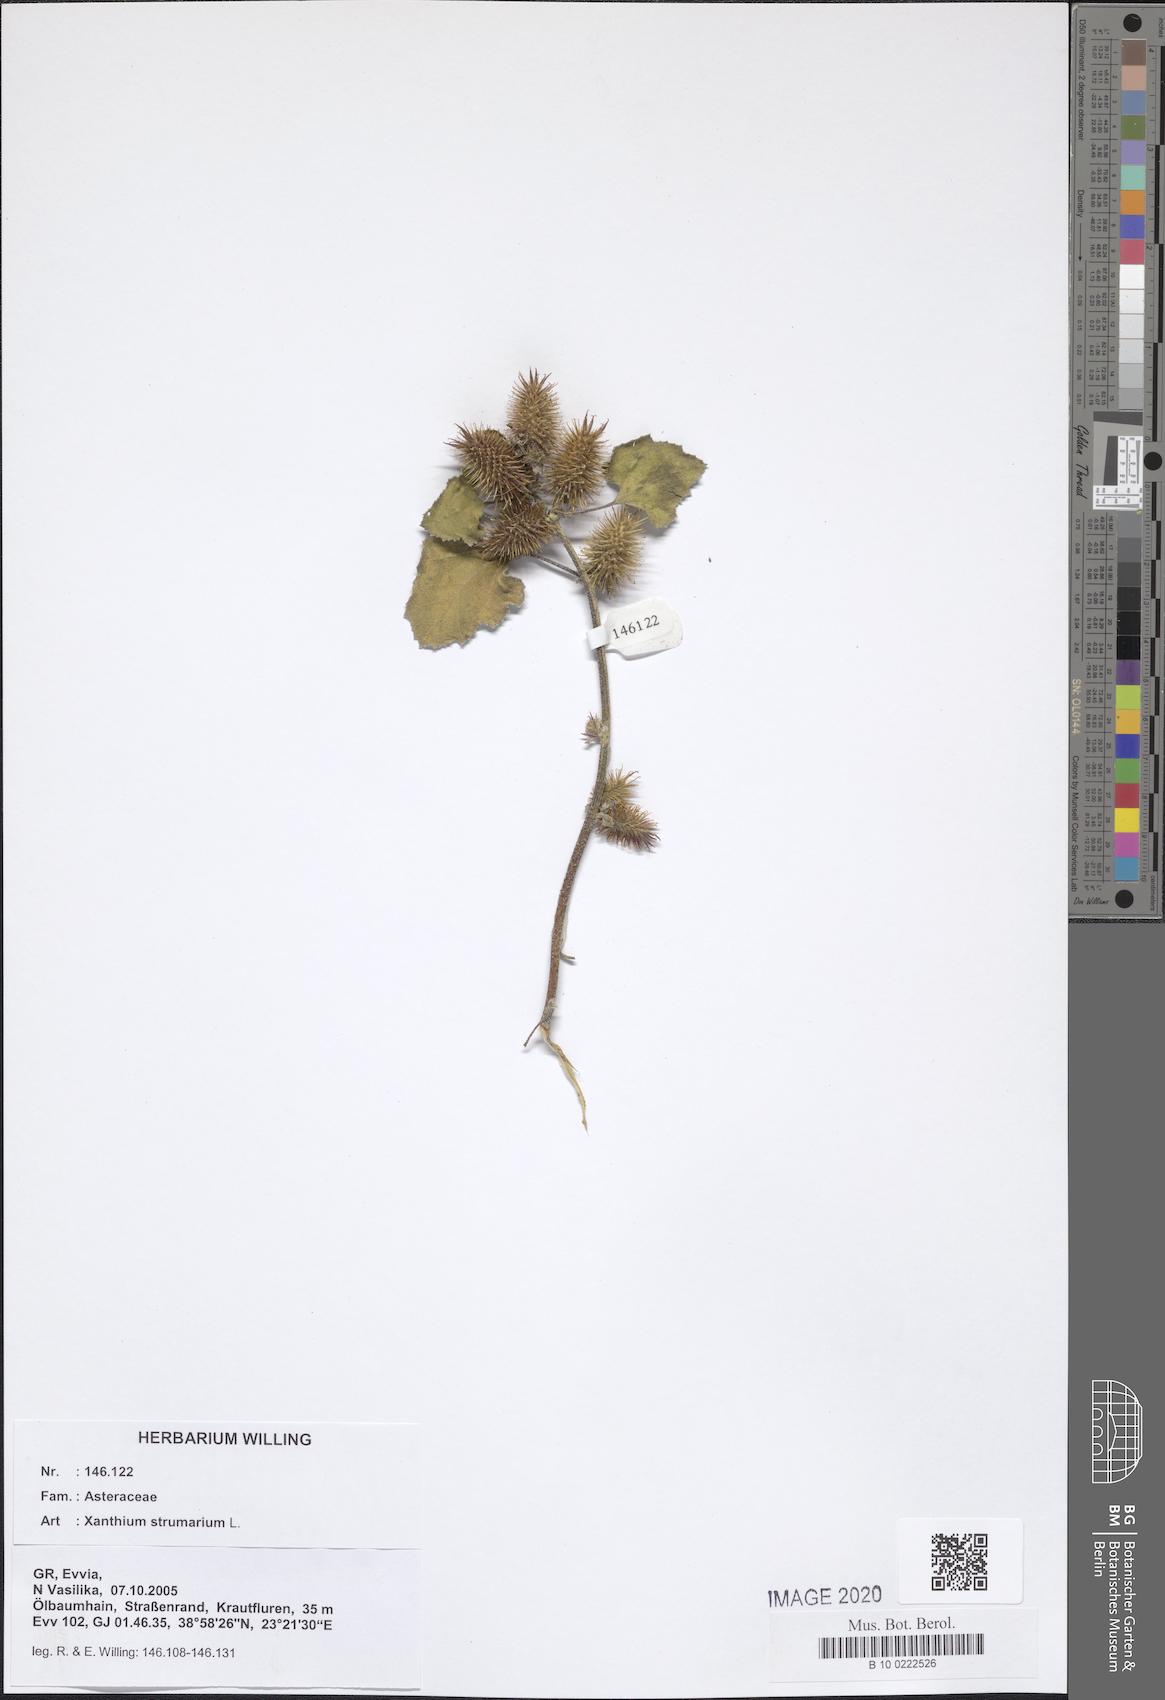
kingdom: Plantae
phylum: Tracheophyta
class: Magnoliopsida
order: Asterales
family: Asteraceae
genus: Xanthium
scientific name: Xanthium strumarium
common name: Rough cocklebur
